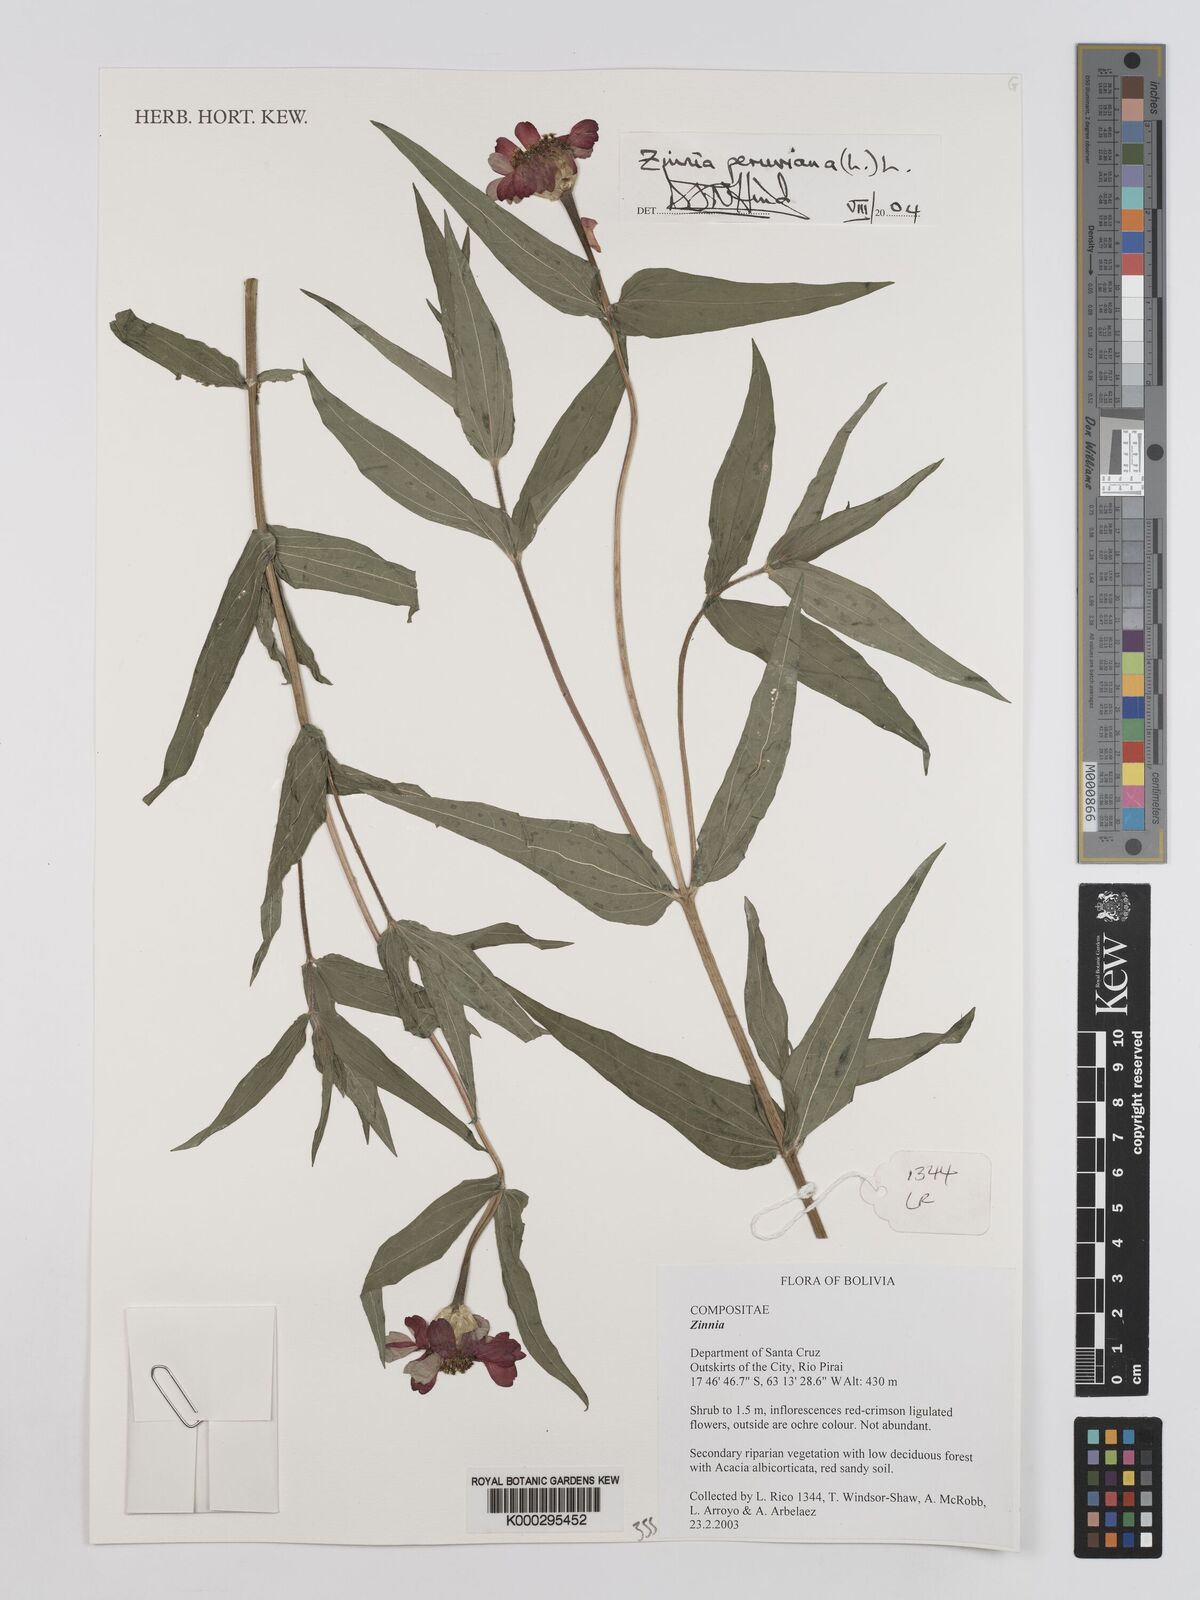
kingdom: Plantae
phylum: Tracheophyta
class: Magnoliopsida
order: Asterales
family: Asteraceae
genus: Zinnia
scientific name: Zinnia peruviana
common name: Peruvian zinnia
